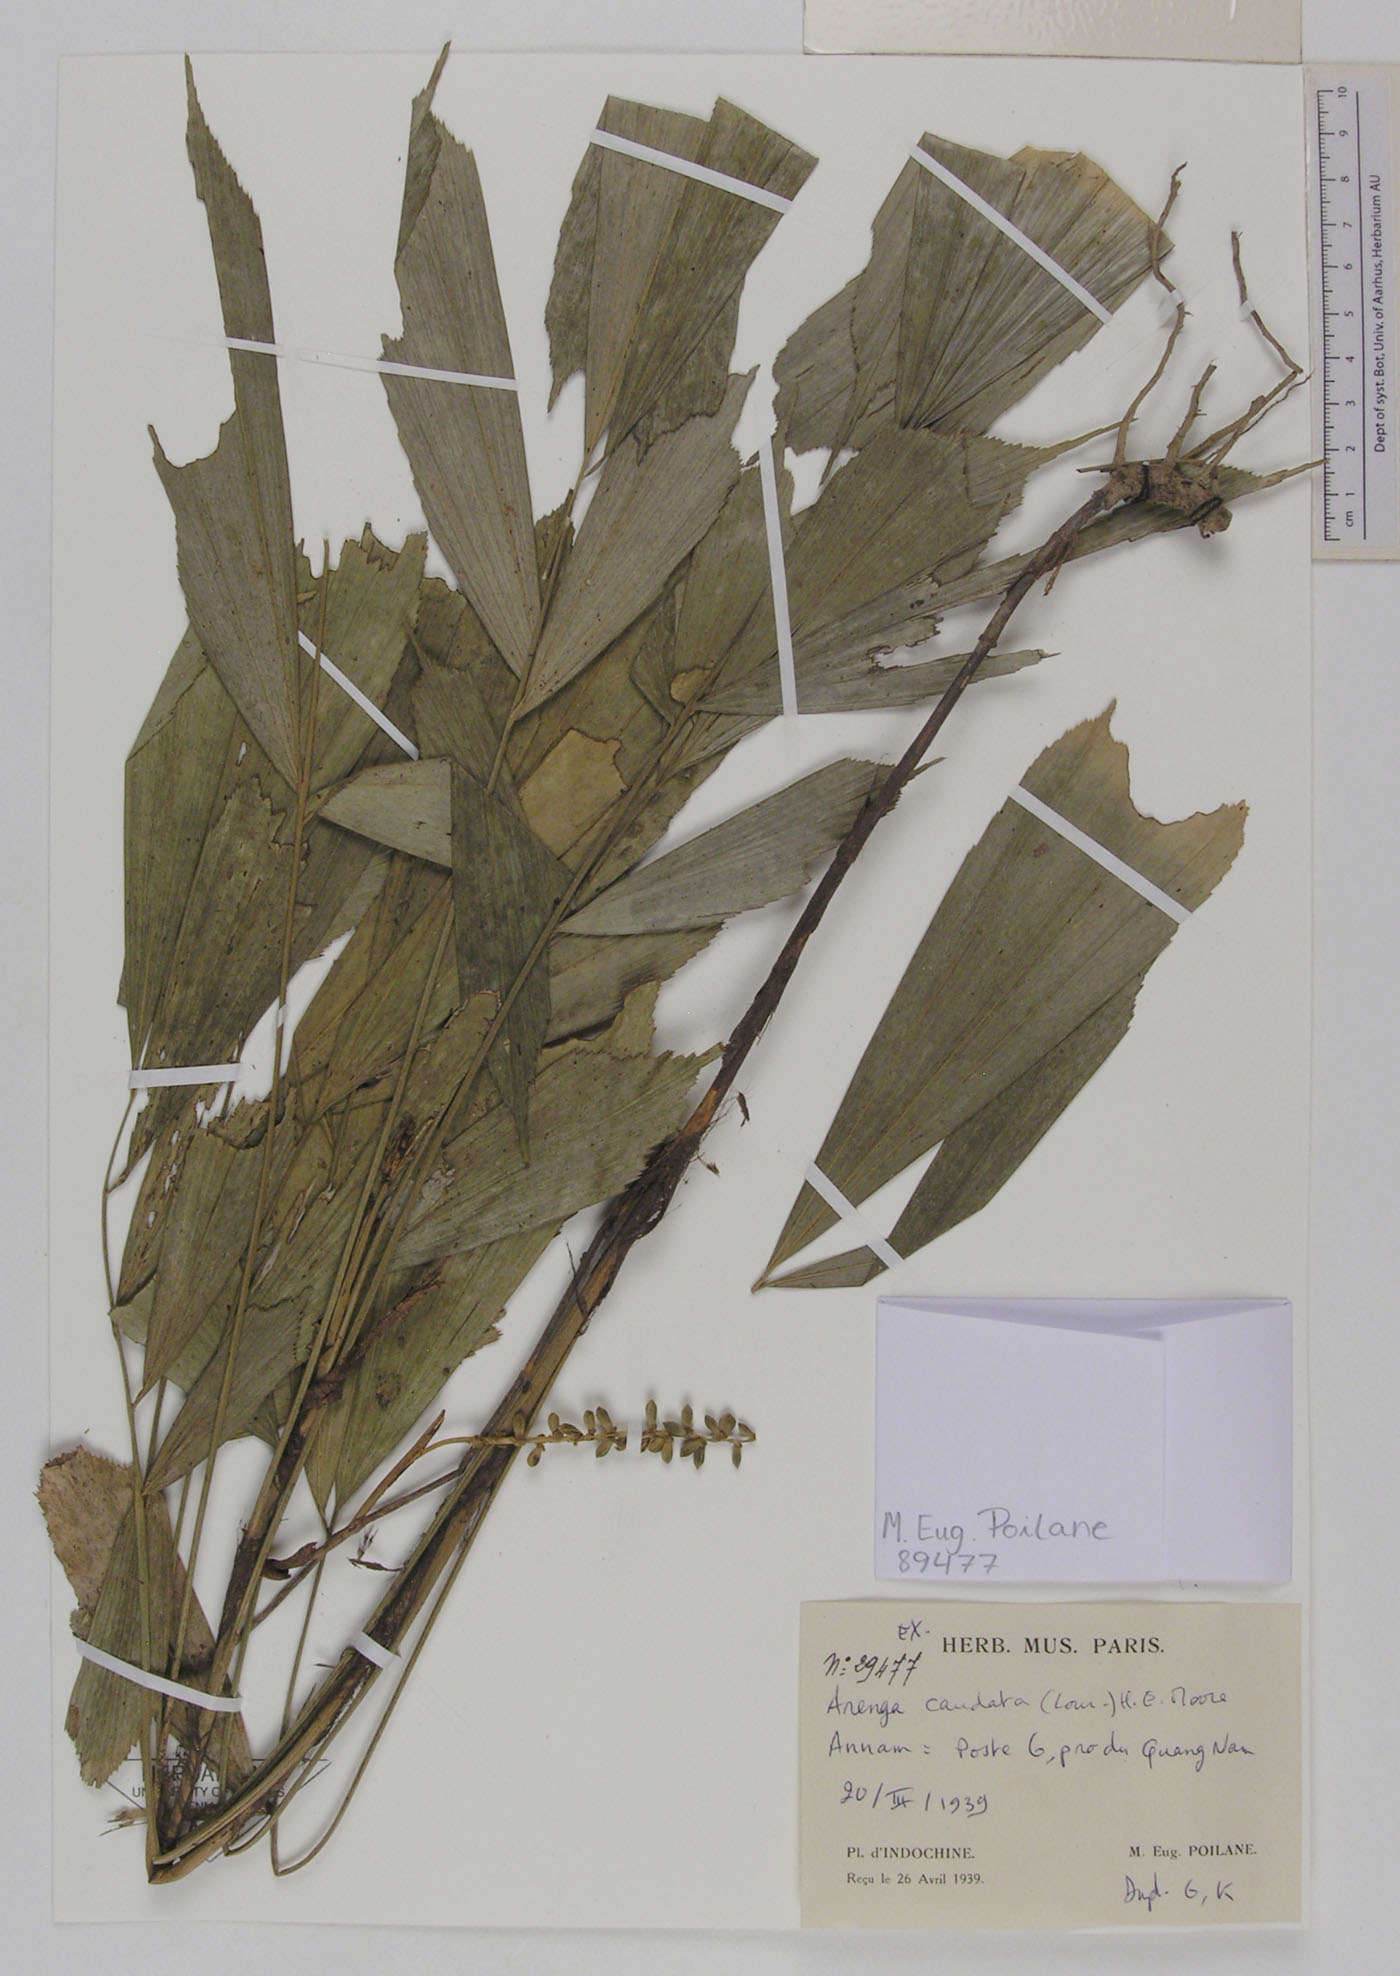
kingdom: Plantae
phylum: Tracheophyta
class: Liliopsida
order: Arecales
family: Arecaceae
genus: Arenga
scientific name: Arenga caudata
